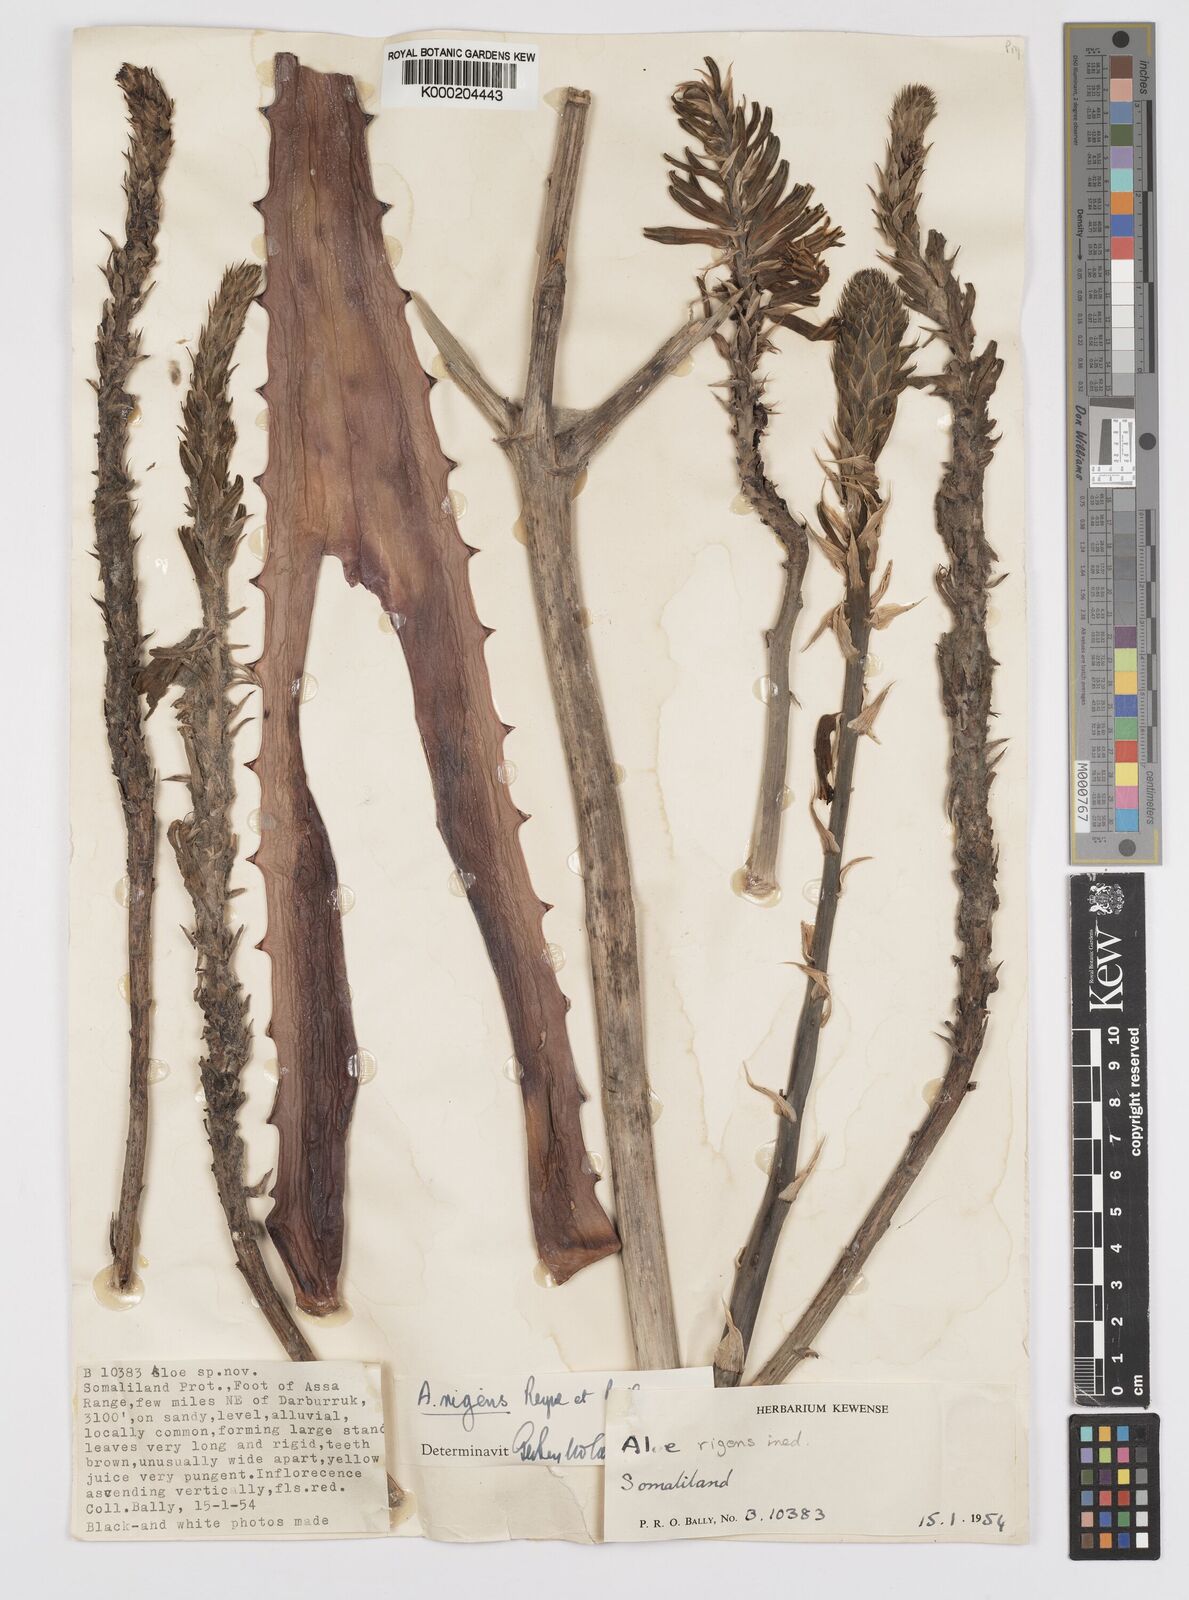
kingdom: Plantae
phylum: Tracheophyta
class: Liliopsida
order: Asparagales
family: Asphodelaceae
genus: Aloe
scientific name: Aloe rigens
